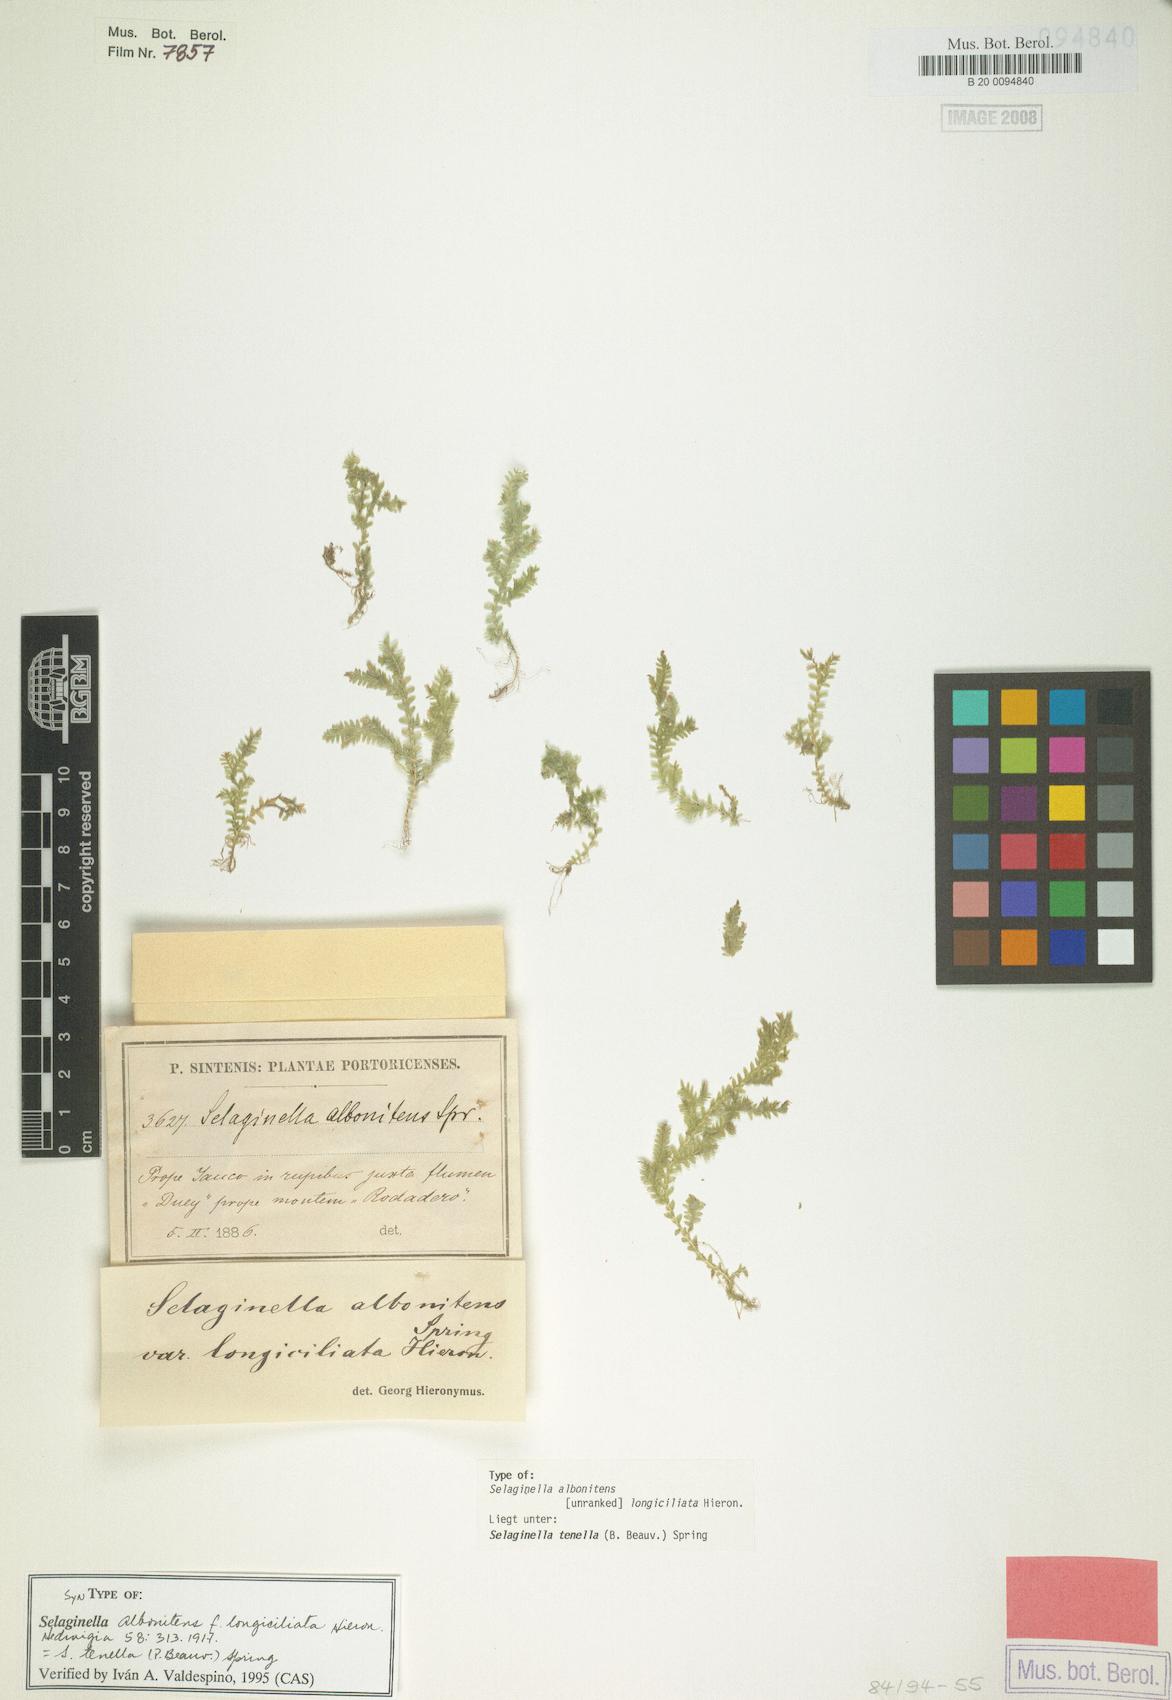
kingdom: Plantae
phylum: Tracheophyta
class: Lycopodiopsida
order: Selaginellales
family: Selaginellaceae
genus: Selaginella
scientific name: Selaginella tenella
